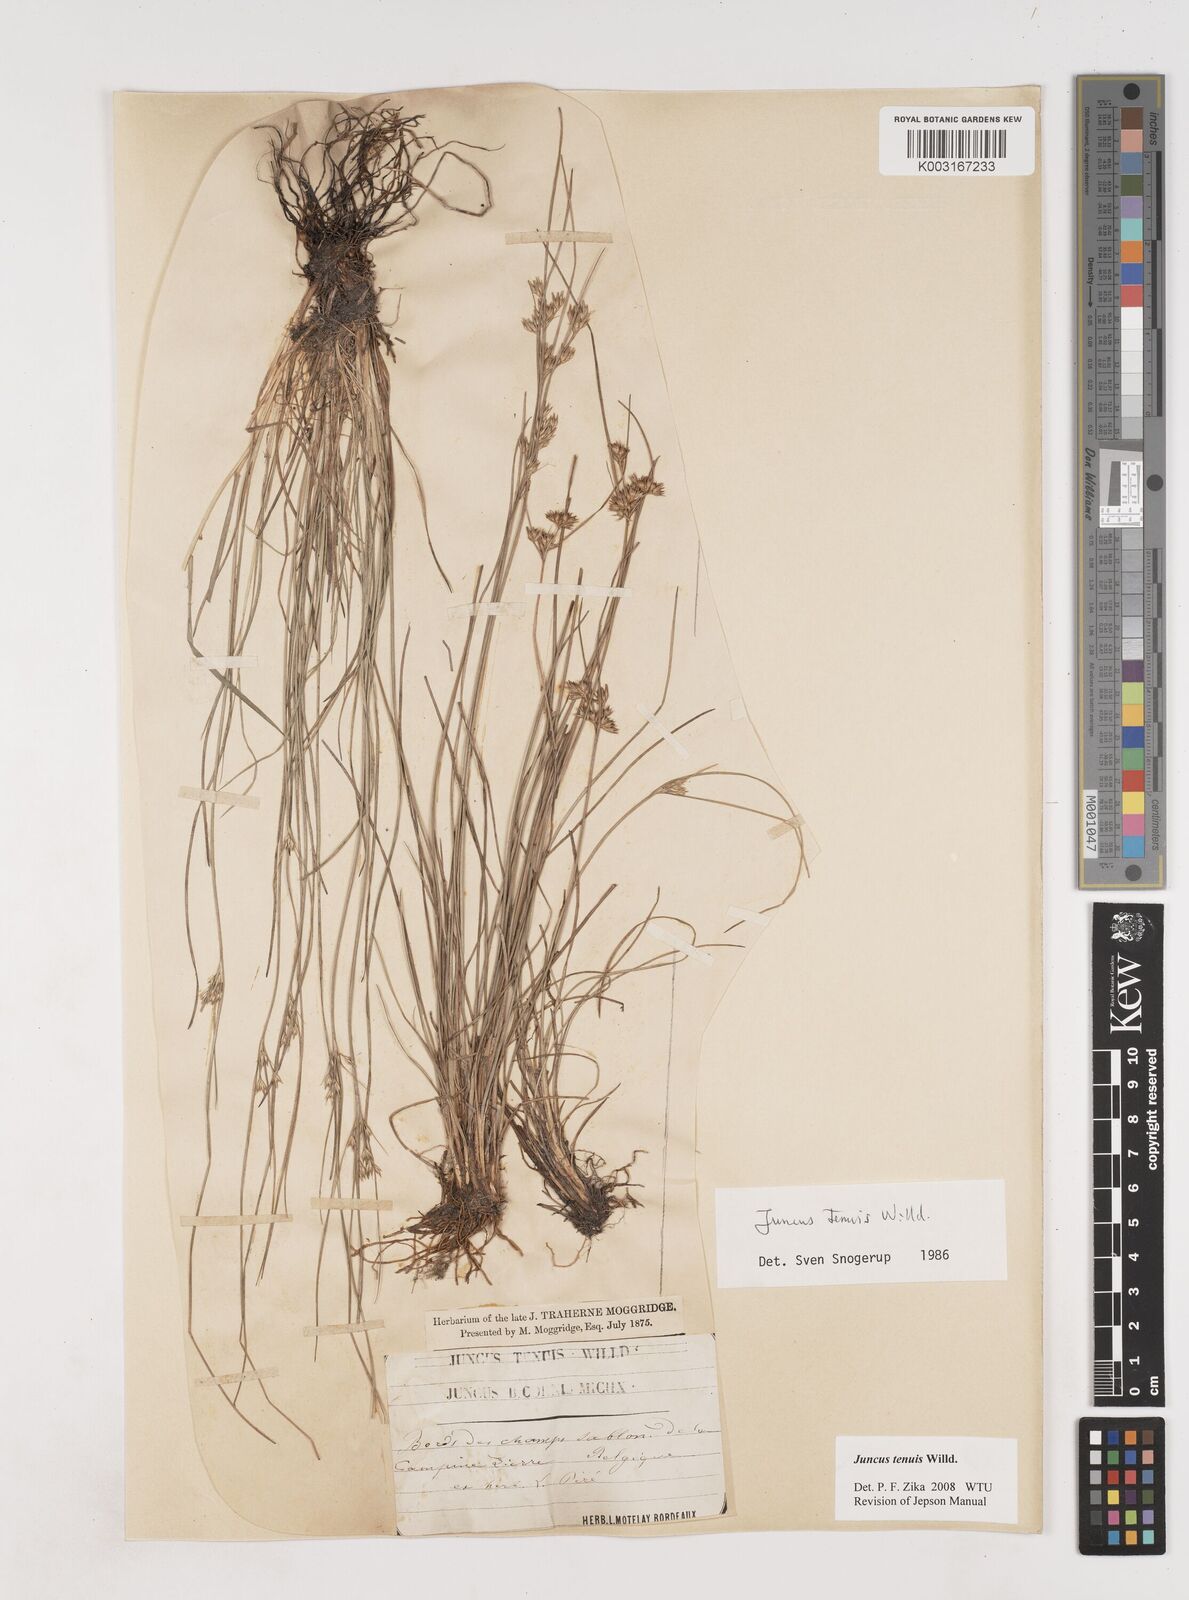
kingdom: Plantae
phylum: Tracheophyta
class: Liliopsida
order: Poales
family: Juncaceae
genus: Juncus
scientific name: Juncus tenuis
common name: Slender rush
